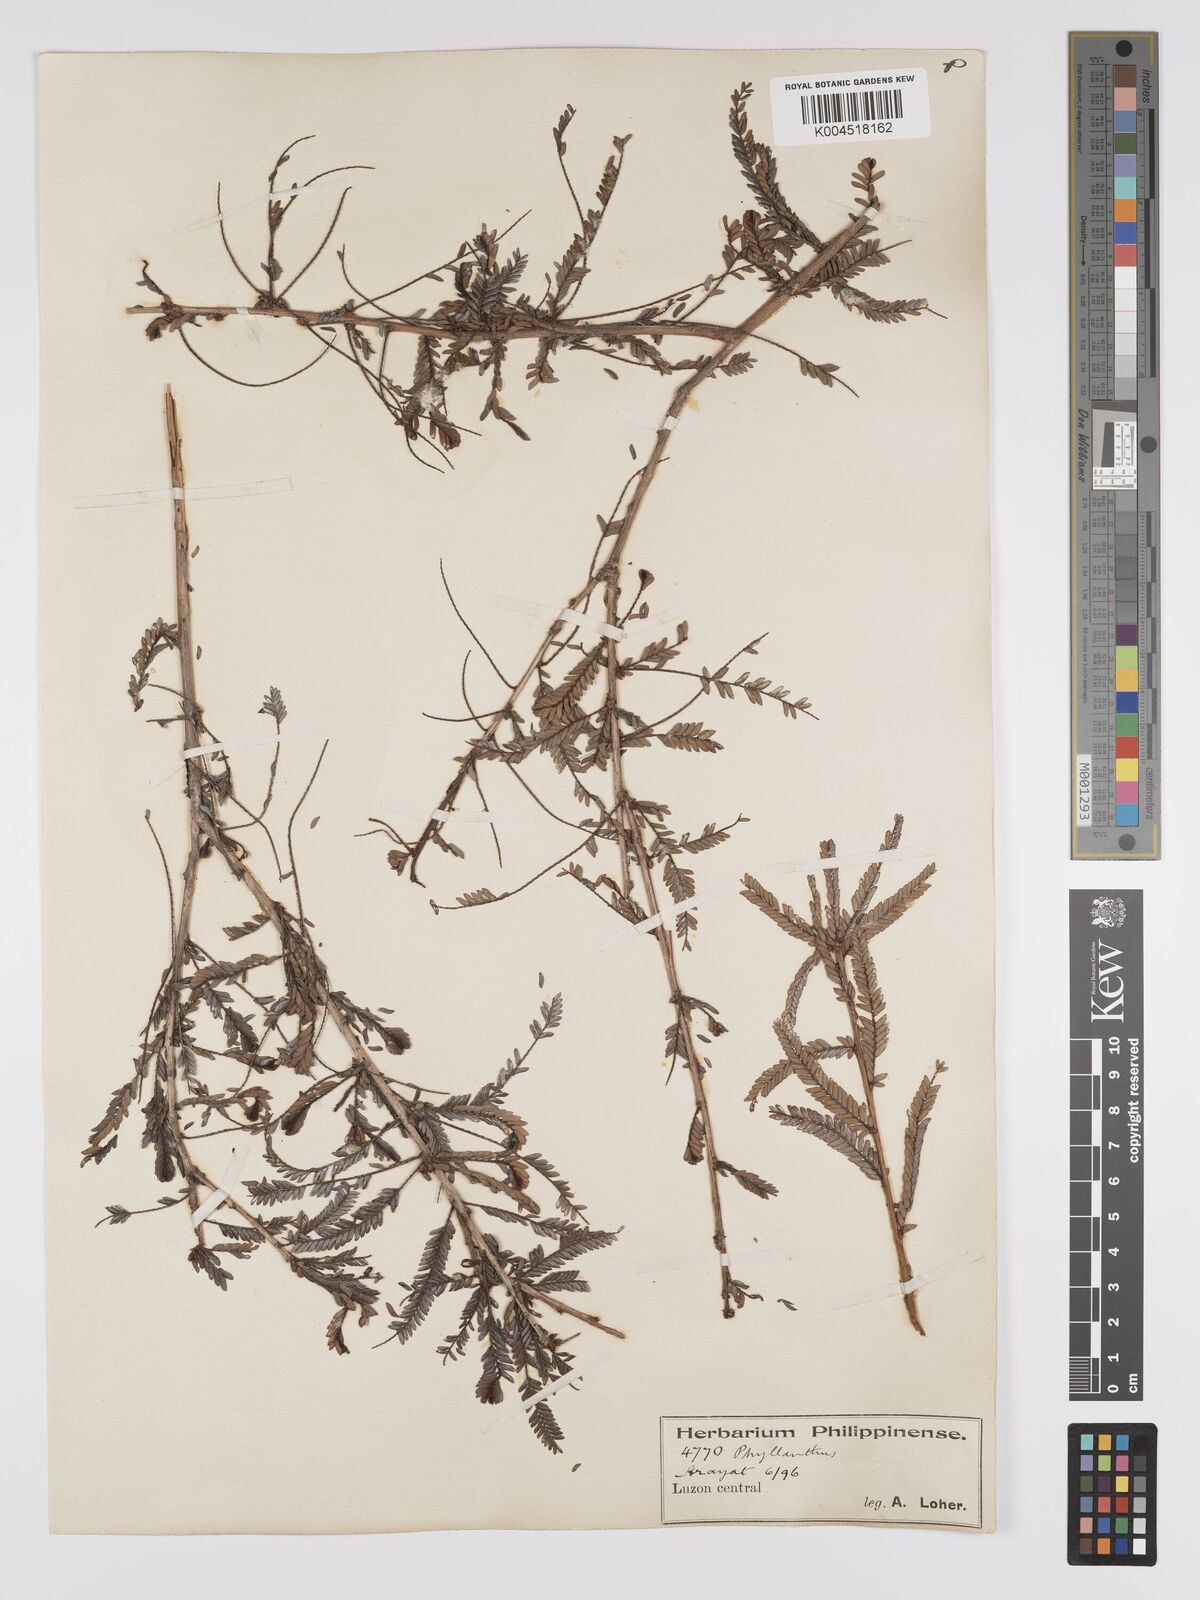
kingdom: Plantae
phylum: Tracheophyta
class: Magnoliopsida
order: Malpighiales
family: Phyllanthaceae
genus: Phyllanthus
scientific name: Phyllanthus curranii
